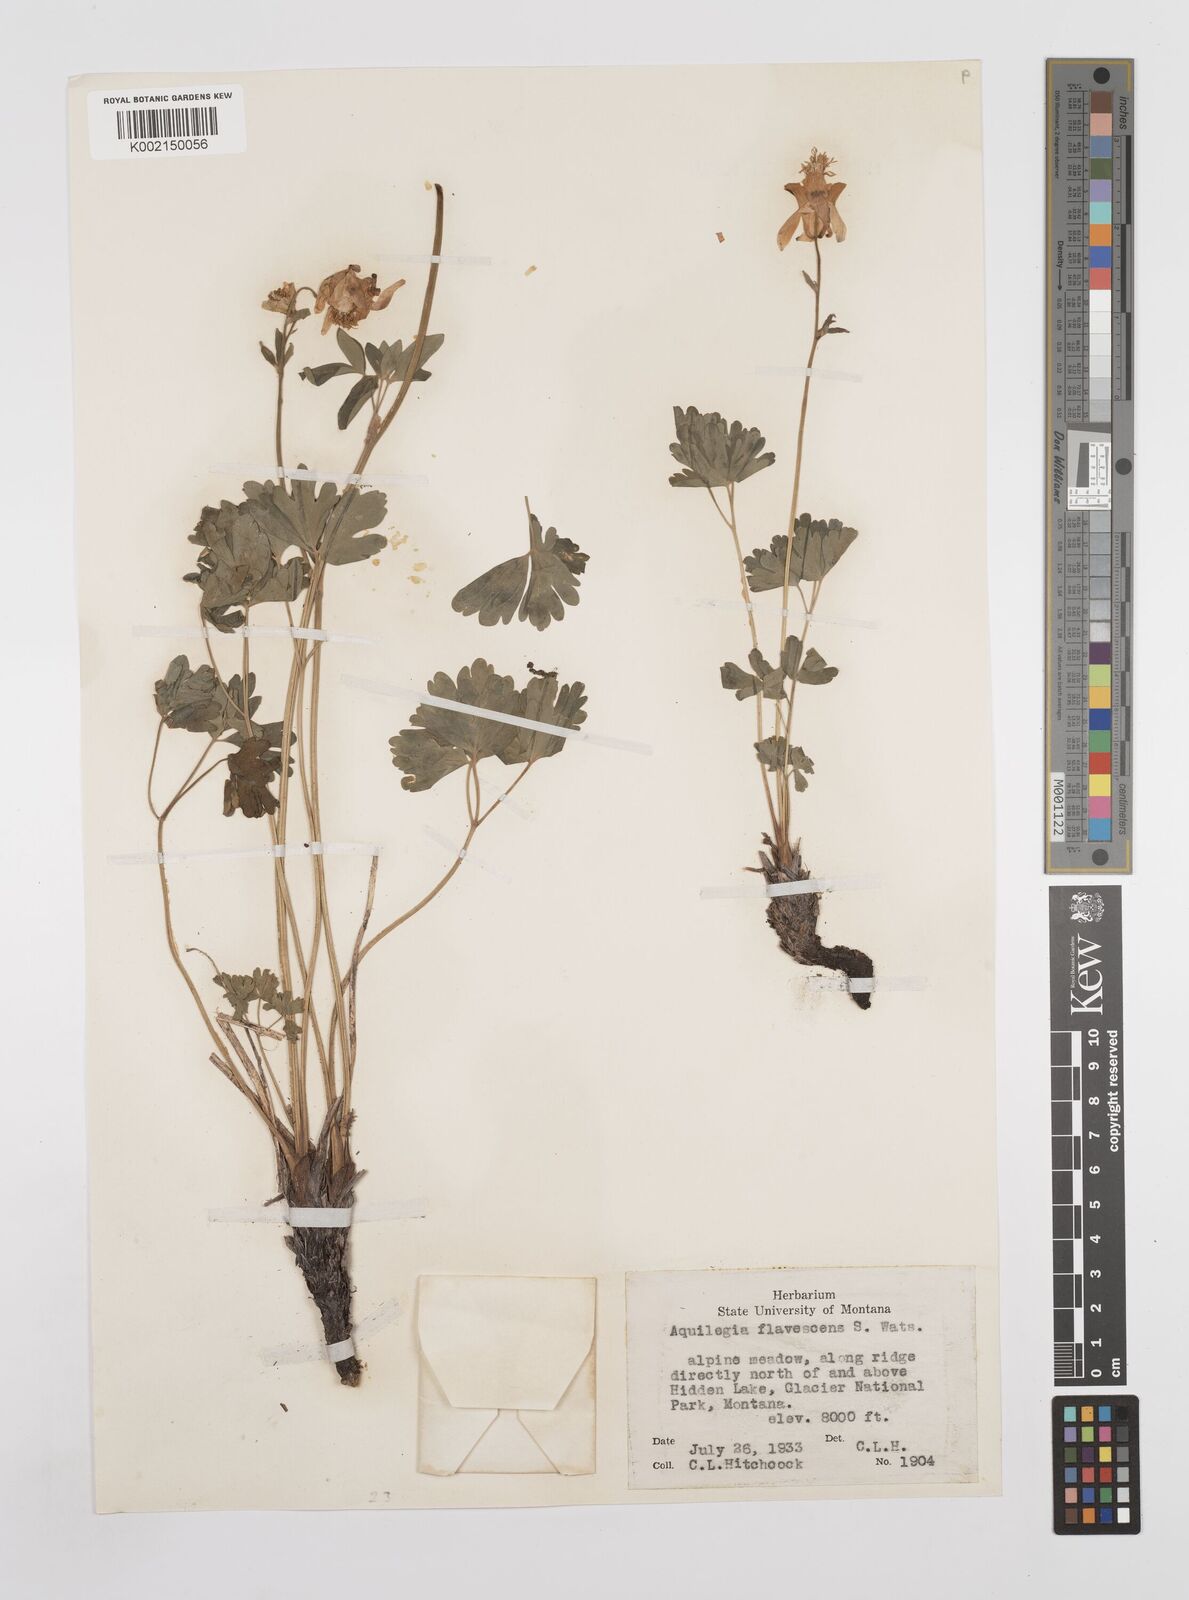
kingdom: Plantae
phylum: Tracheophyta
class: Magnoliopsida
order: Ranunculales
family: Ranunculaceae
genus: Aquilegia
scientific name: Aquilegia flavescens
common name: Yellow columbine
